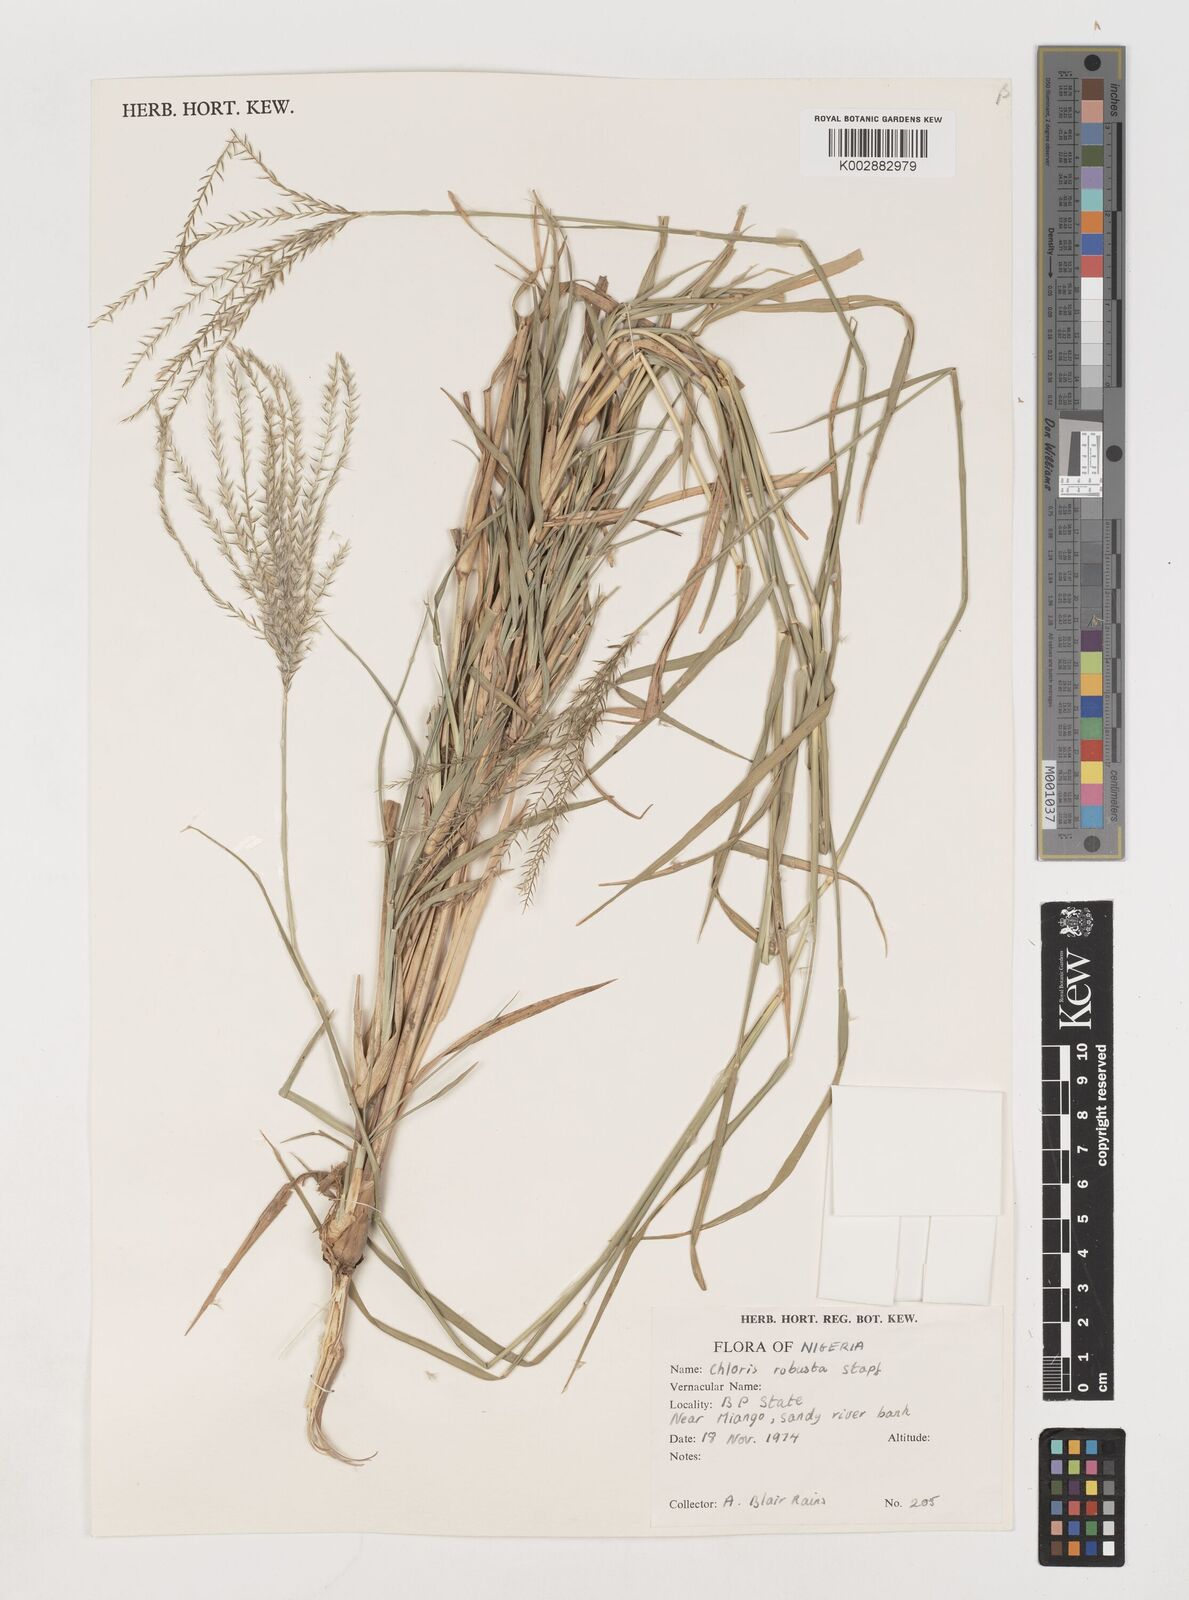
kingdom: Plantae
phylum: Tracheophyta
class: Liliopsida
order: Poales
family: Poaceae
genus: Chloris
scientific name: Chloris robusta
